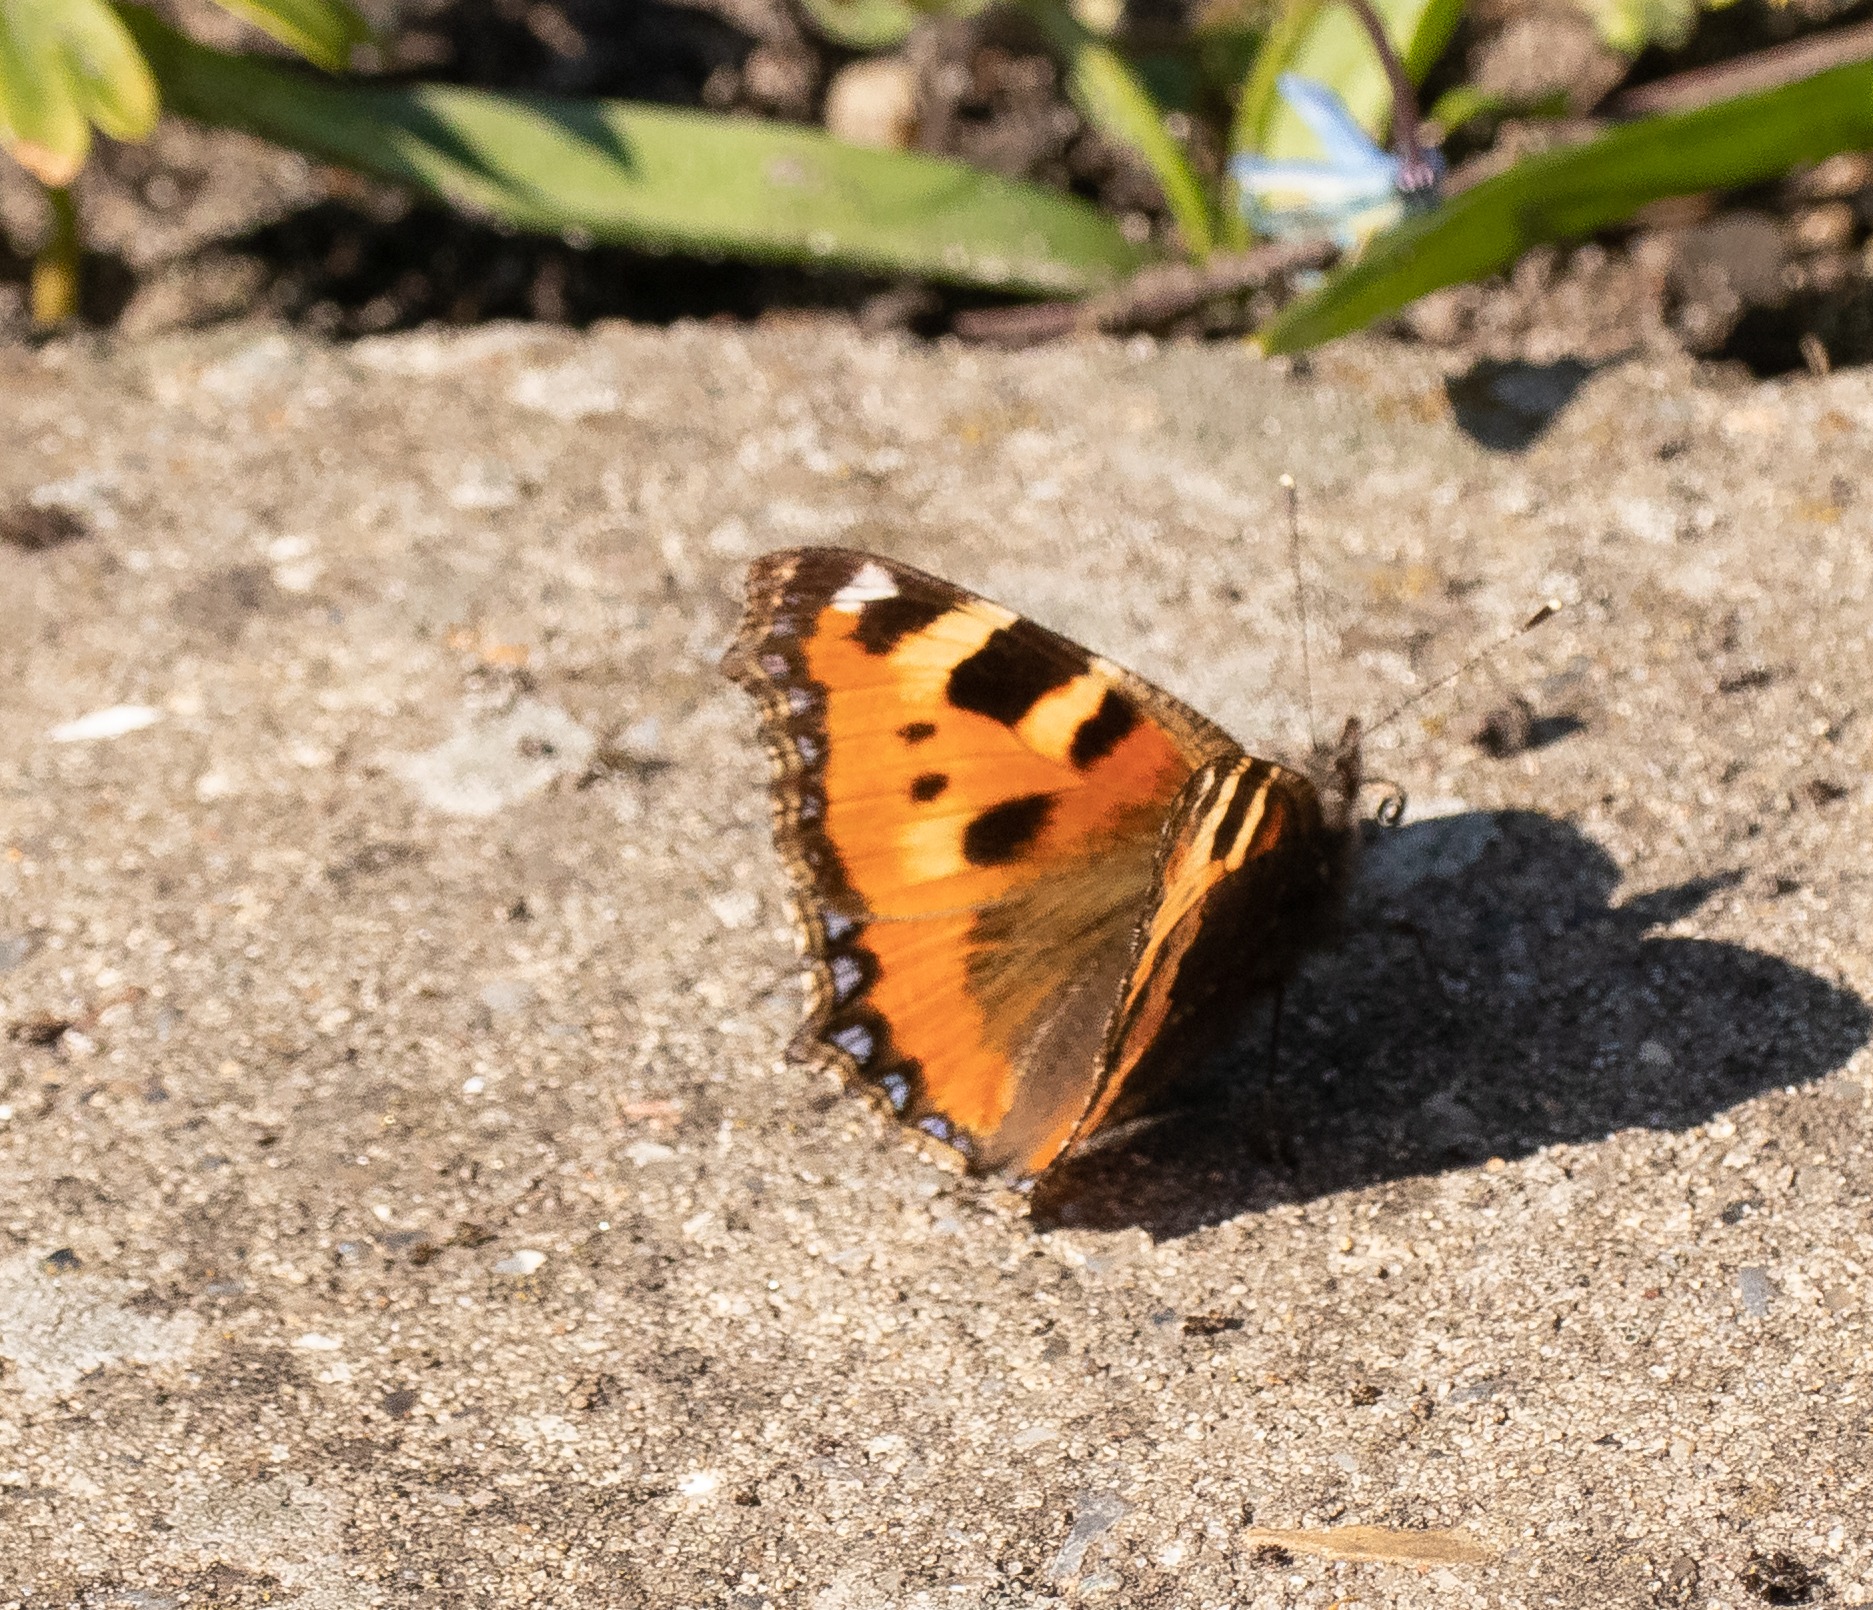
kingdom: Animalia
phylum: Arthropoda
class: Insecta
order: Lepidoptera
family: Nymphalidae
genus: Aglais
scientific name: Aglais urticae
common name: Nældens takvinge
